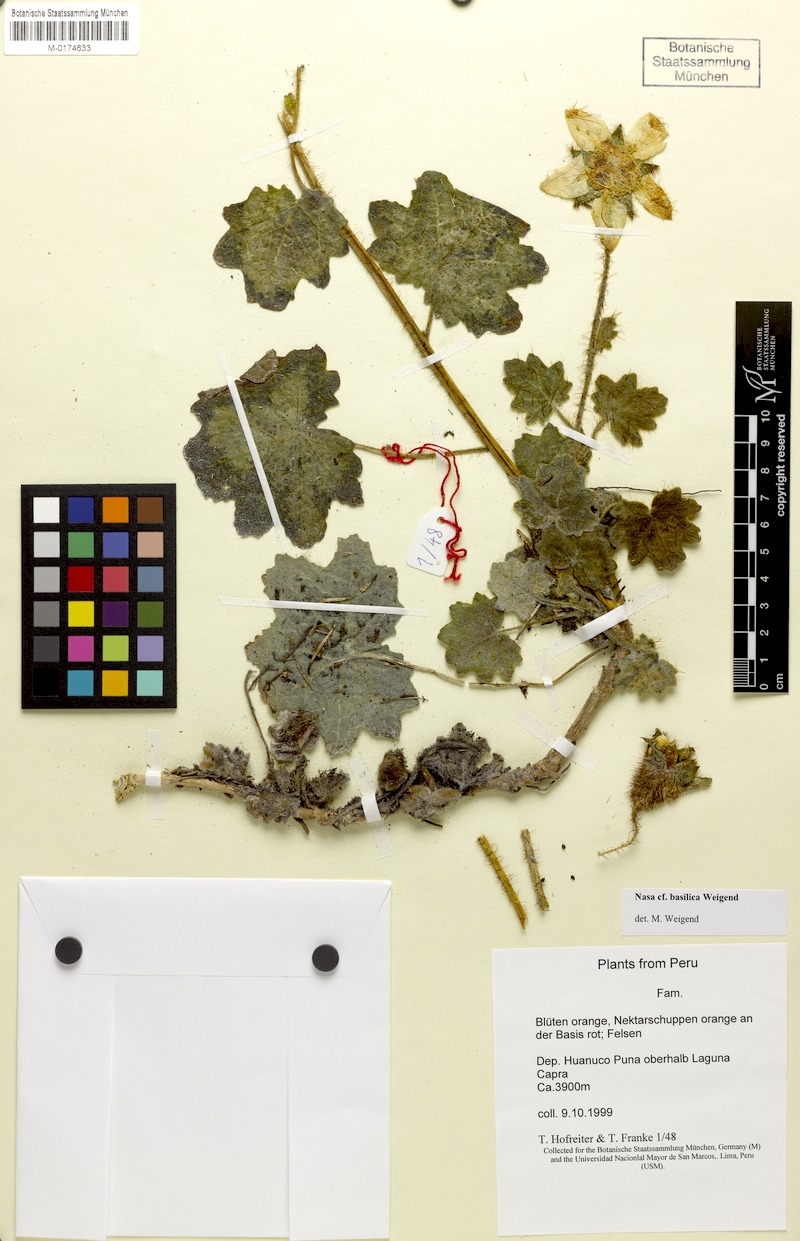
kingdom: Plantae
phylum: Tracheophyta
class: Magnoliopsida
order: Cornales
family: Loasaceae
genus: Nasa
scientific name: Nasa ranunculifolia
